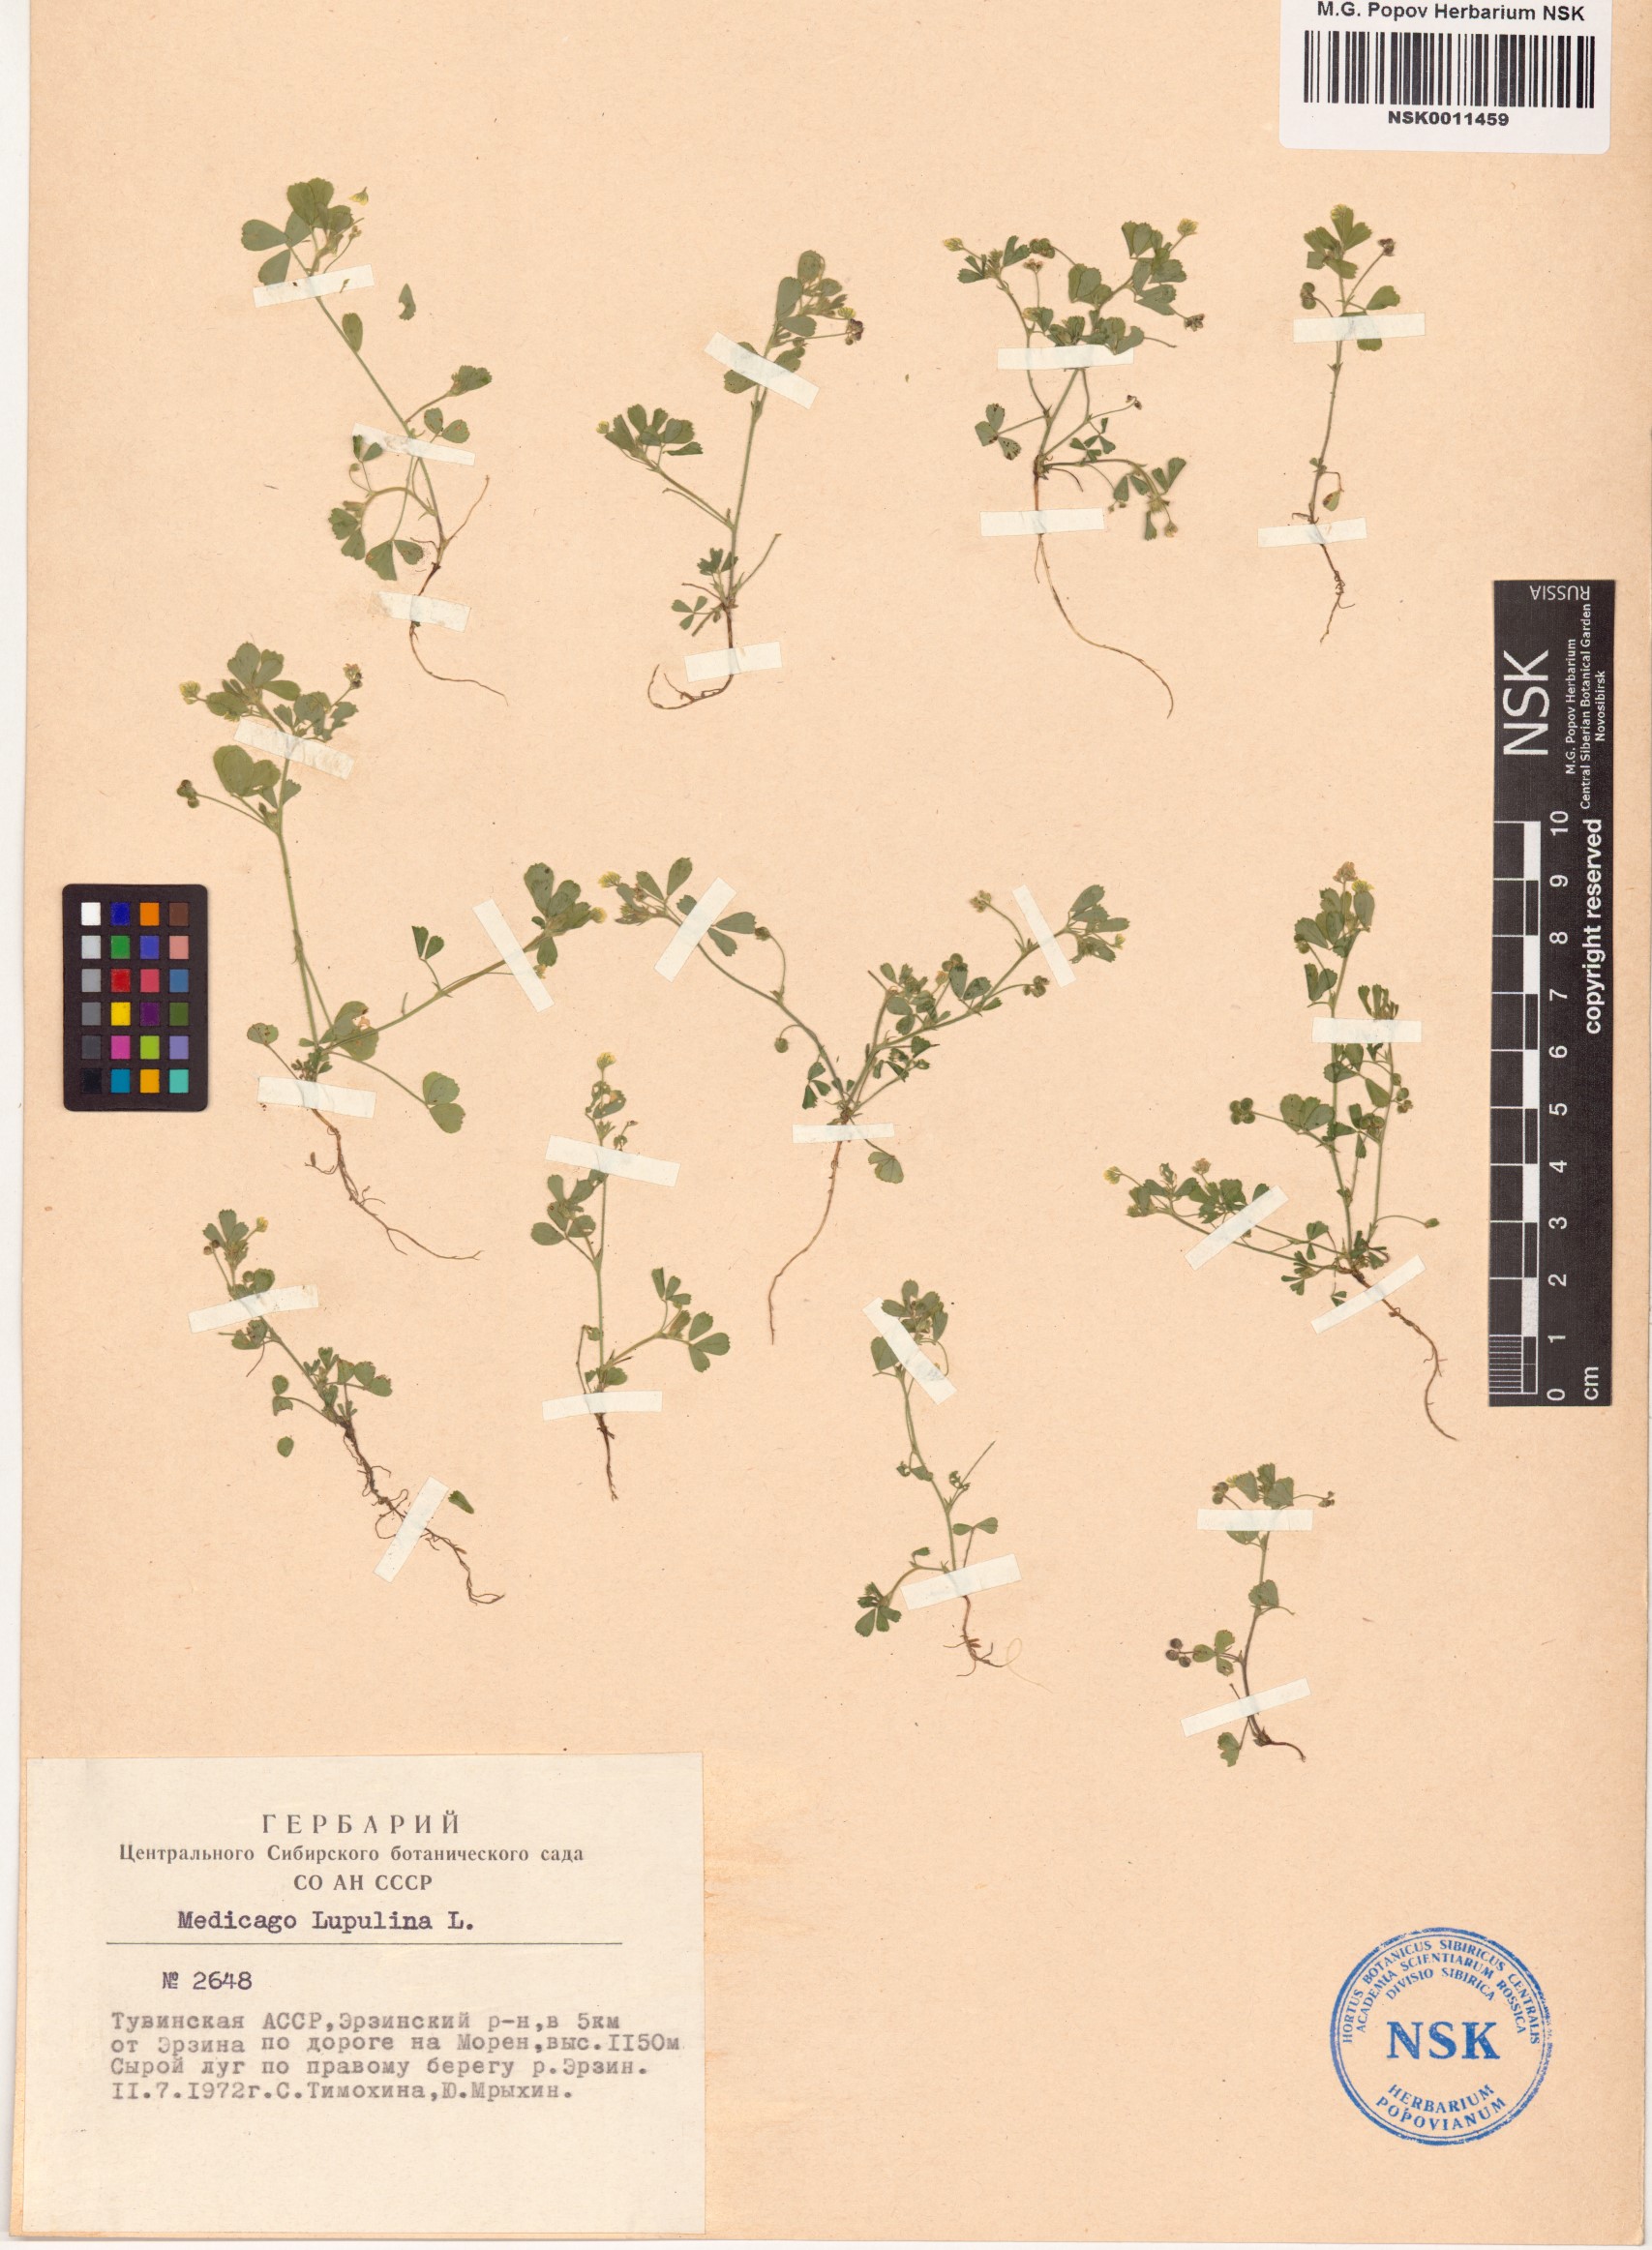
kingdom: Plantae
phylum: Tracheophyta
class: Magnoliopsida
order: Fabales
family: Fabaceae
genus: Medicago
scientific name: Medicago lupulina
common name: Black medick
